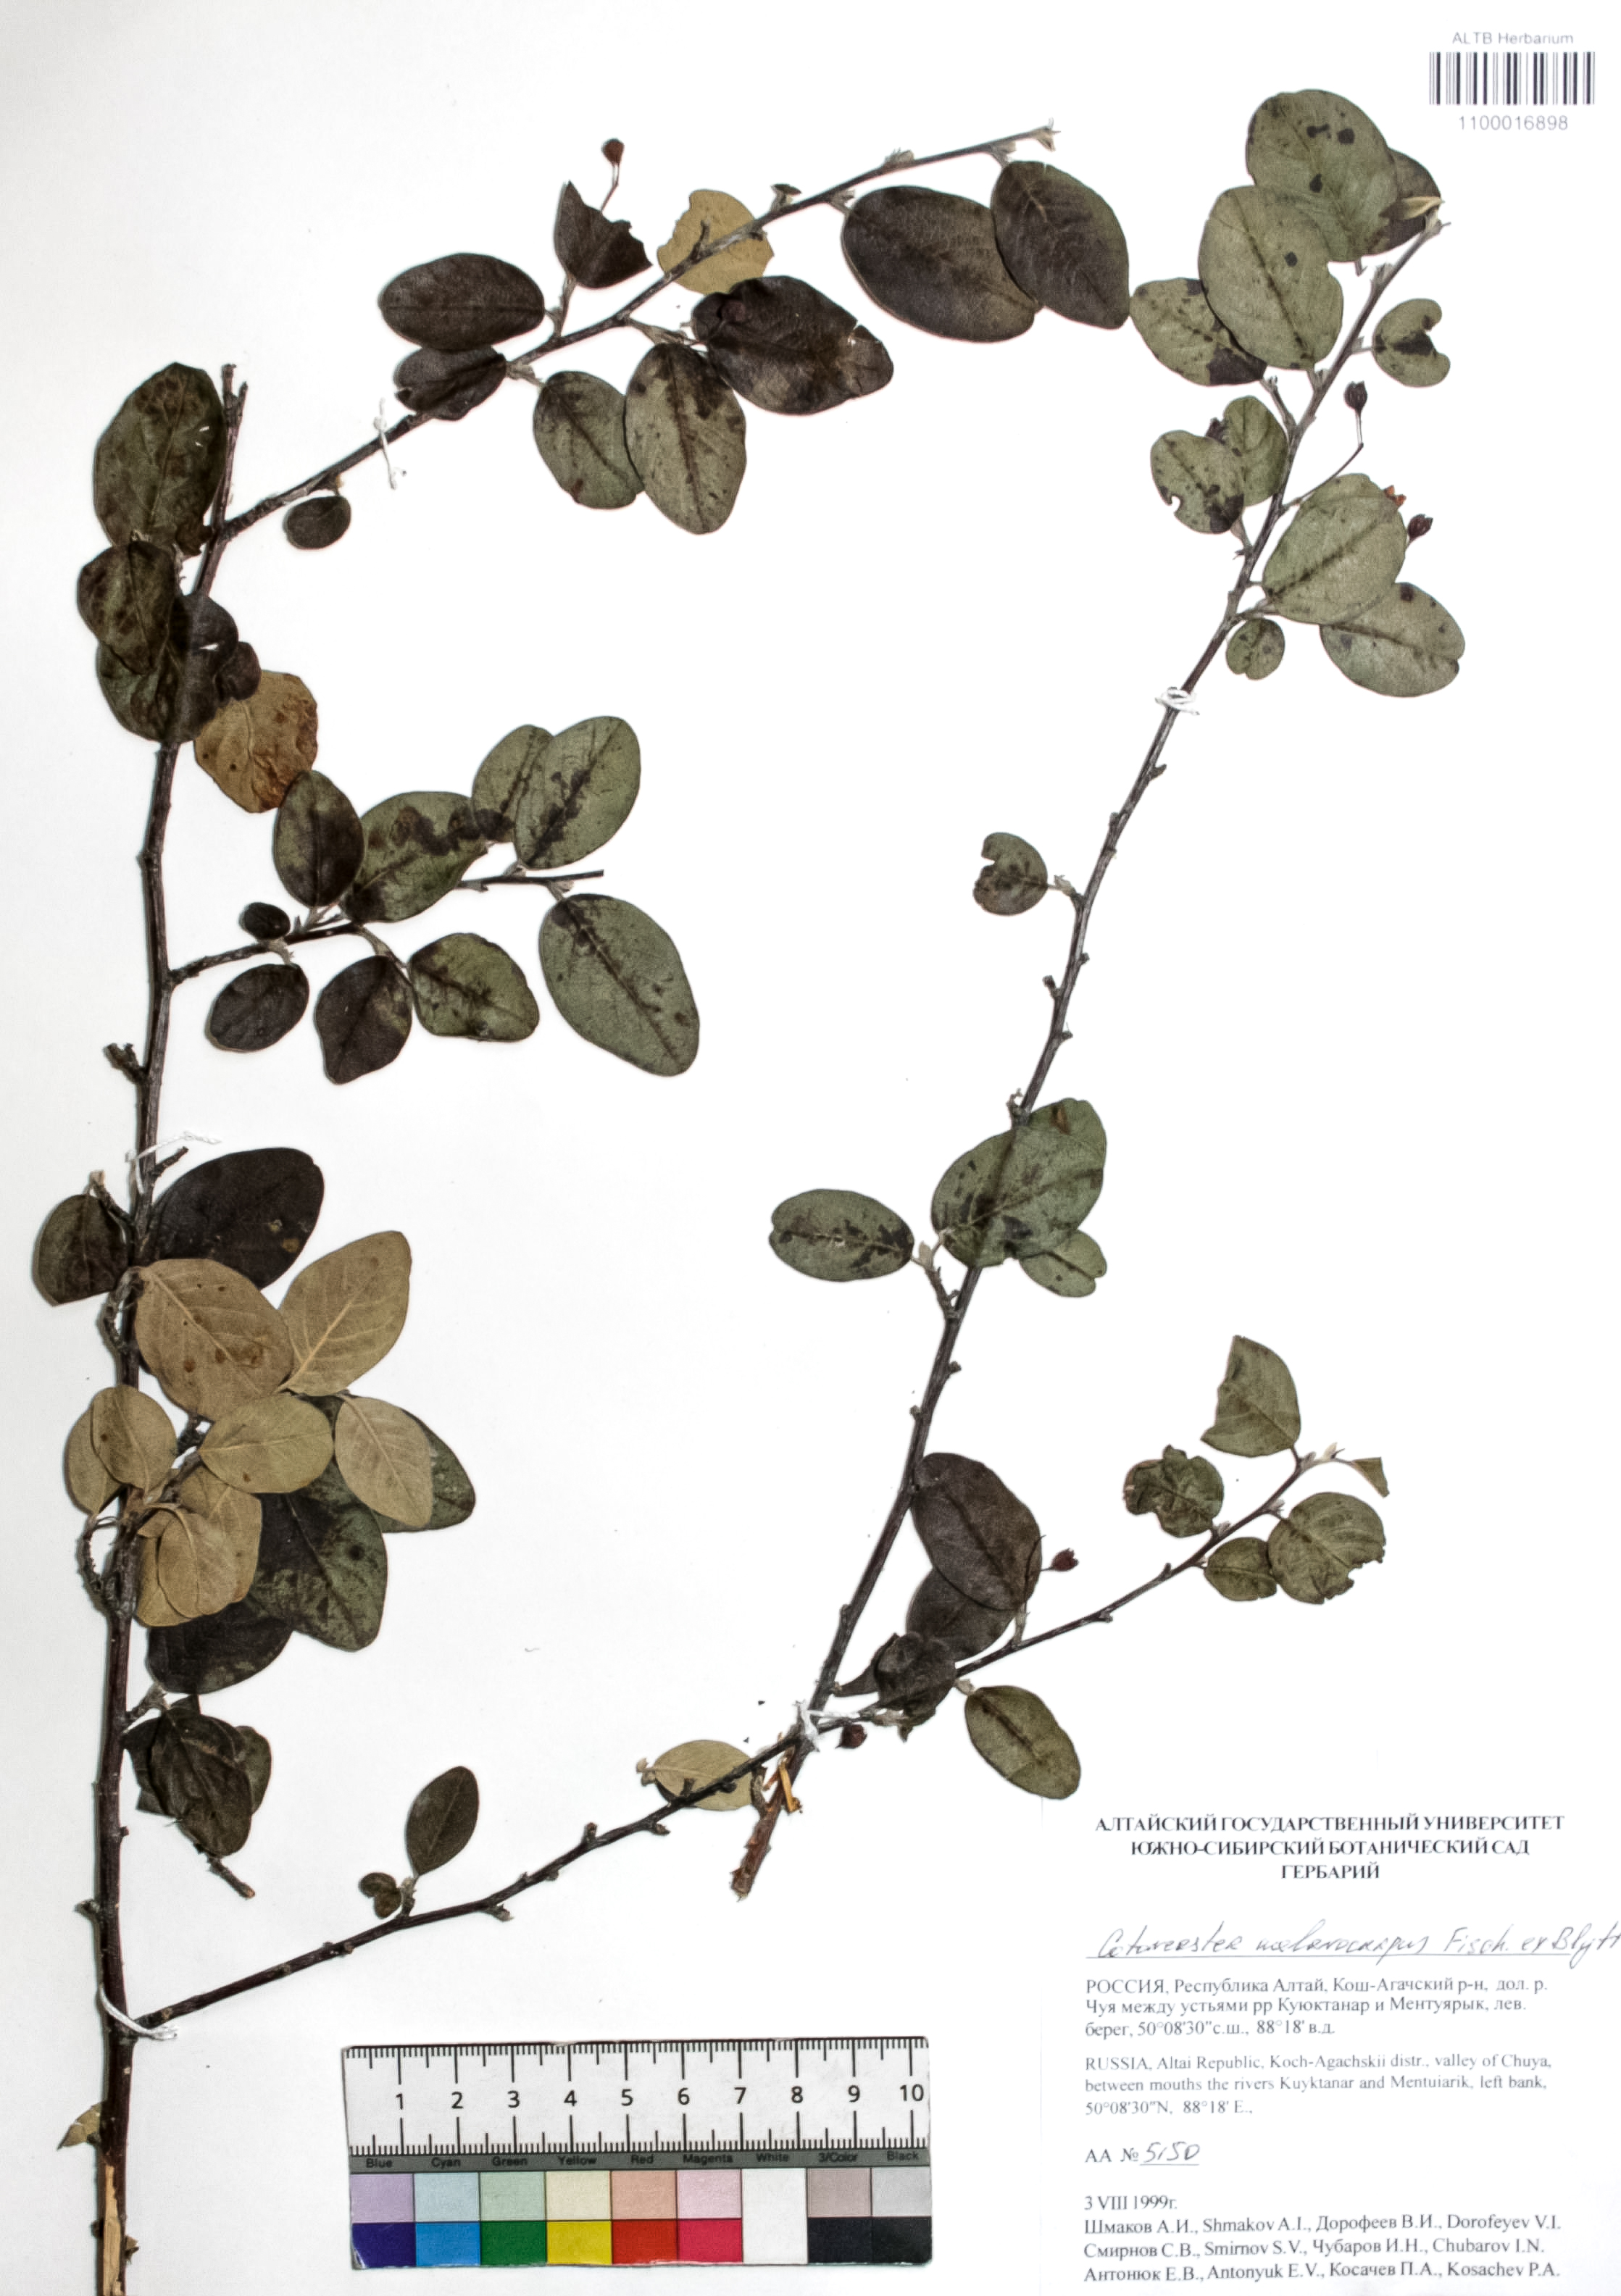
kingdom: Plantae
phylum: Tracheophyta
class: Magnoliopsida
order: Rosales
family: Rosaceae
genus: Cotoneaster
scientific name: Cotoneaster niger
